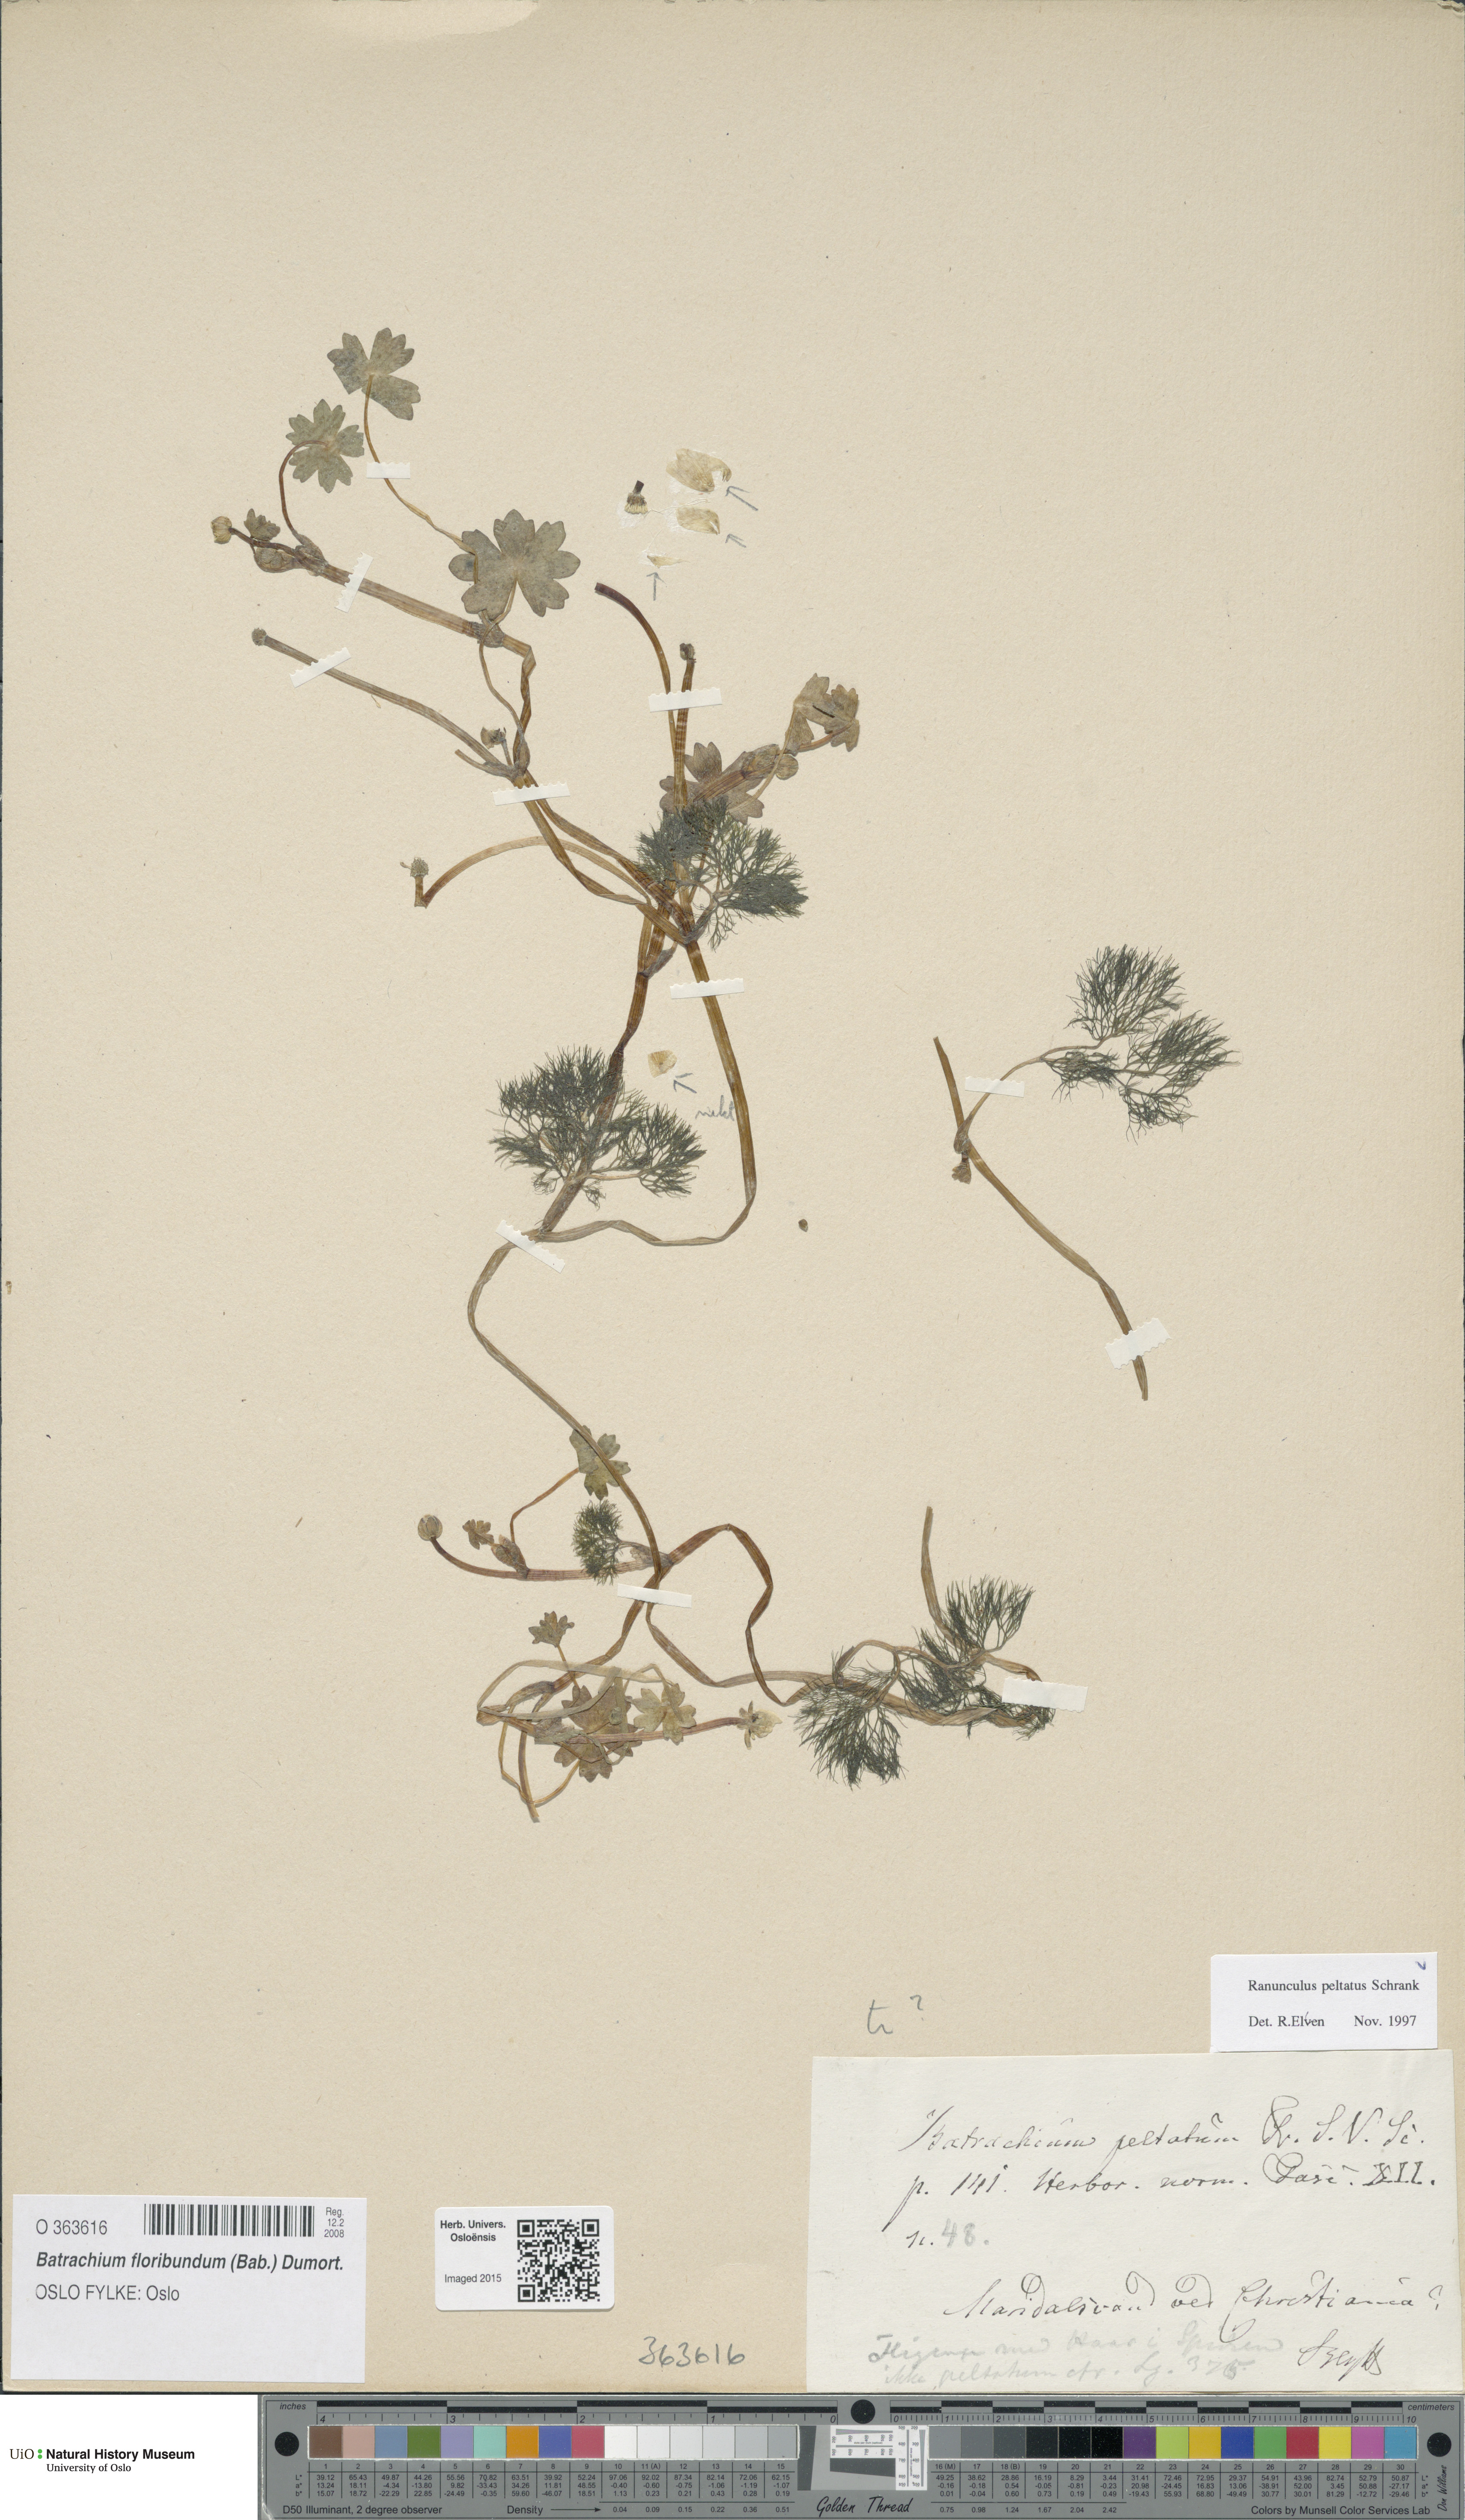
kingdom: Plantae
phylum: Tracheophyta
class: Magnoliopsida
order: Ranunculales
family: Ranunculaceae
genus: Ranunculus
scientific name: Ranunculus peltatus
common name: Pond water-crowfoot
